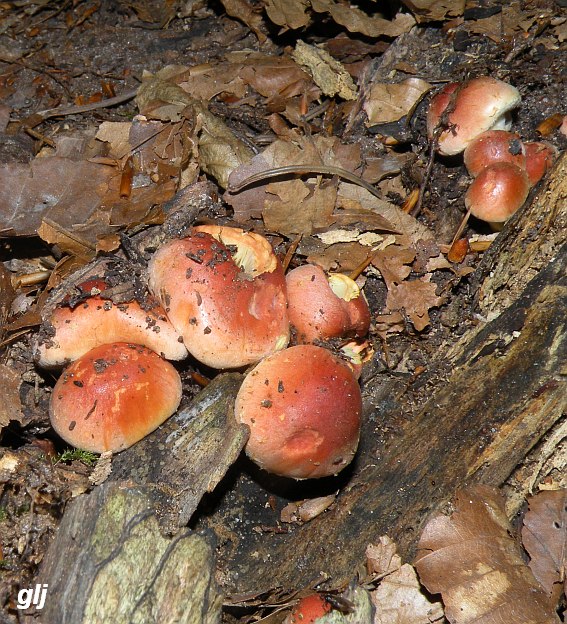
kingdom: Fungi
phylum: Basidiomycota
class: Agaricomycetes
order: Agaricales
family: Strophariaceae
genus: Hypholoma
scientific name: Hypholoma lateritium
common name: teglrød svovlhat
